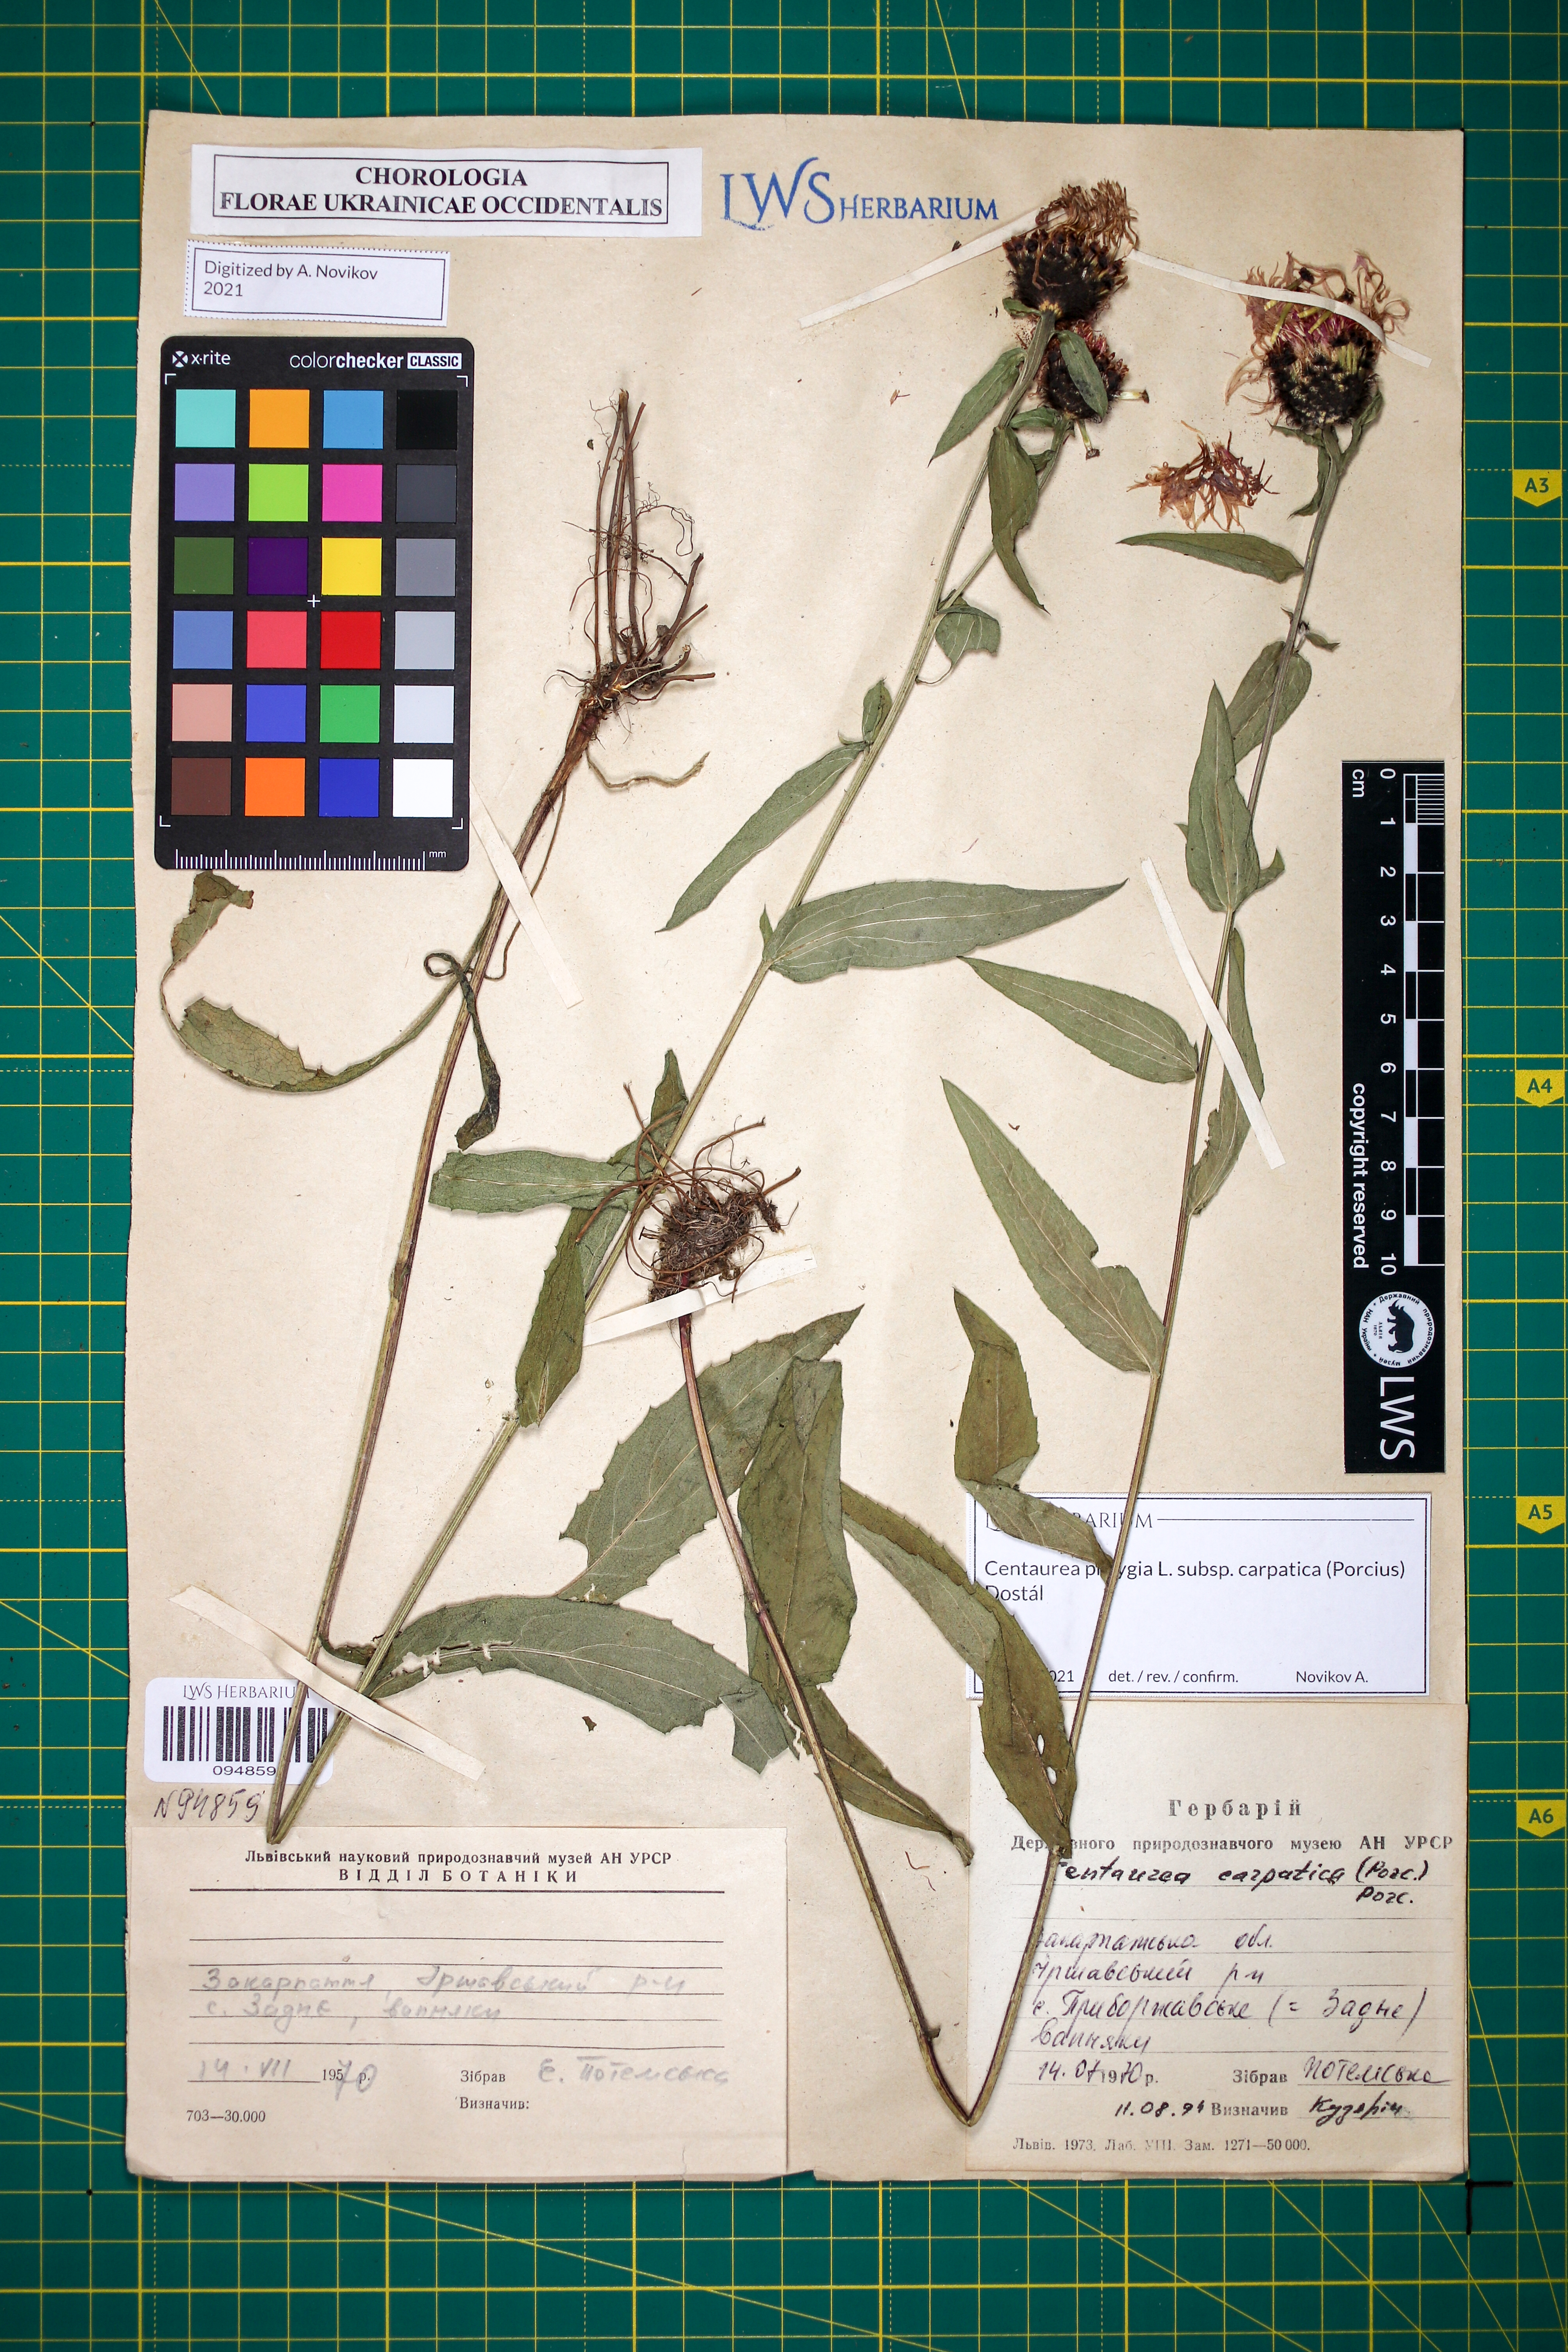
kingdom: Plantae
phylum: Tracheophyta
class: Magnoliopsida
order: Asterales
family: Asteraceae
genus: Centaurea
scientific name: Centaurea phrygia
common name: Wig knapweed
